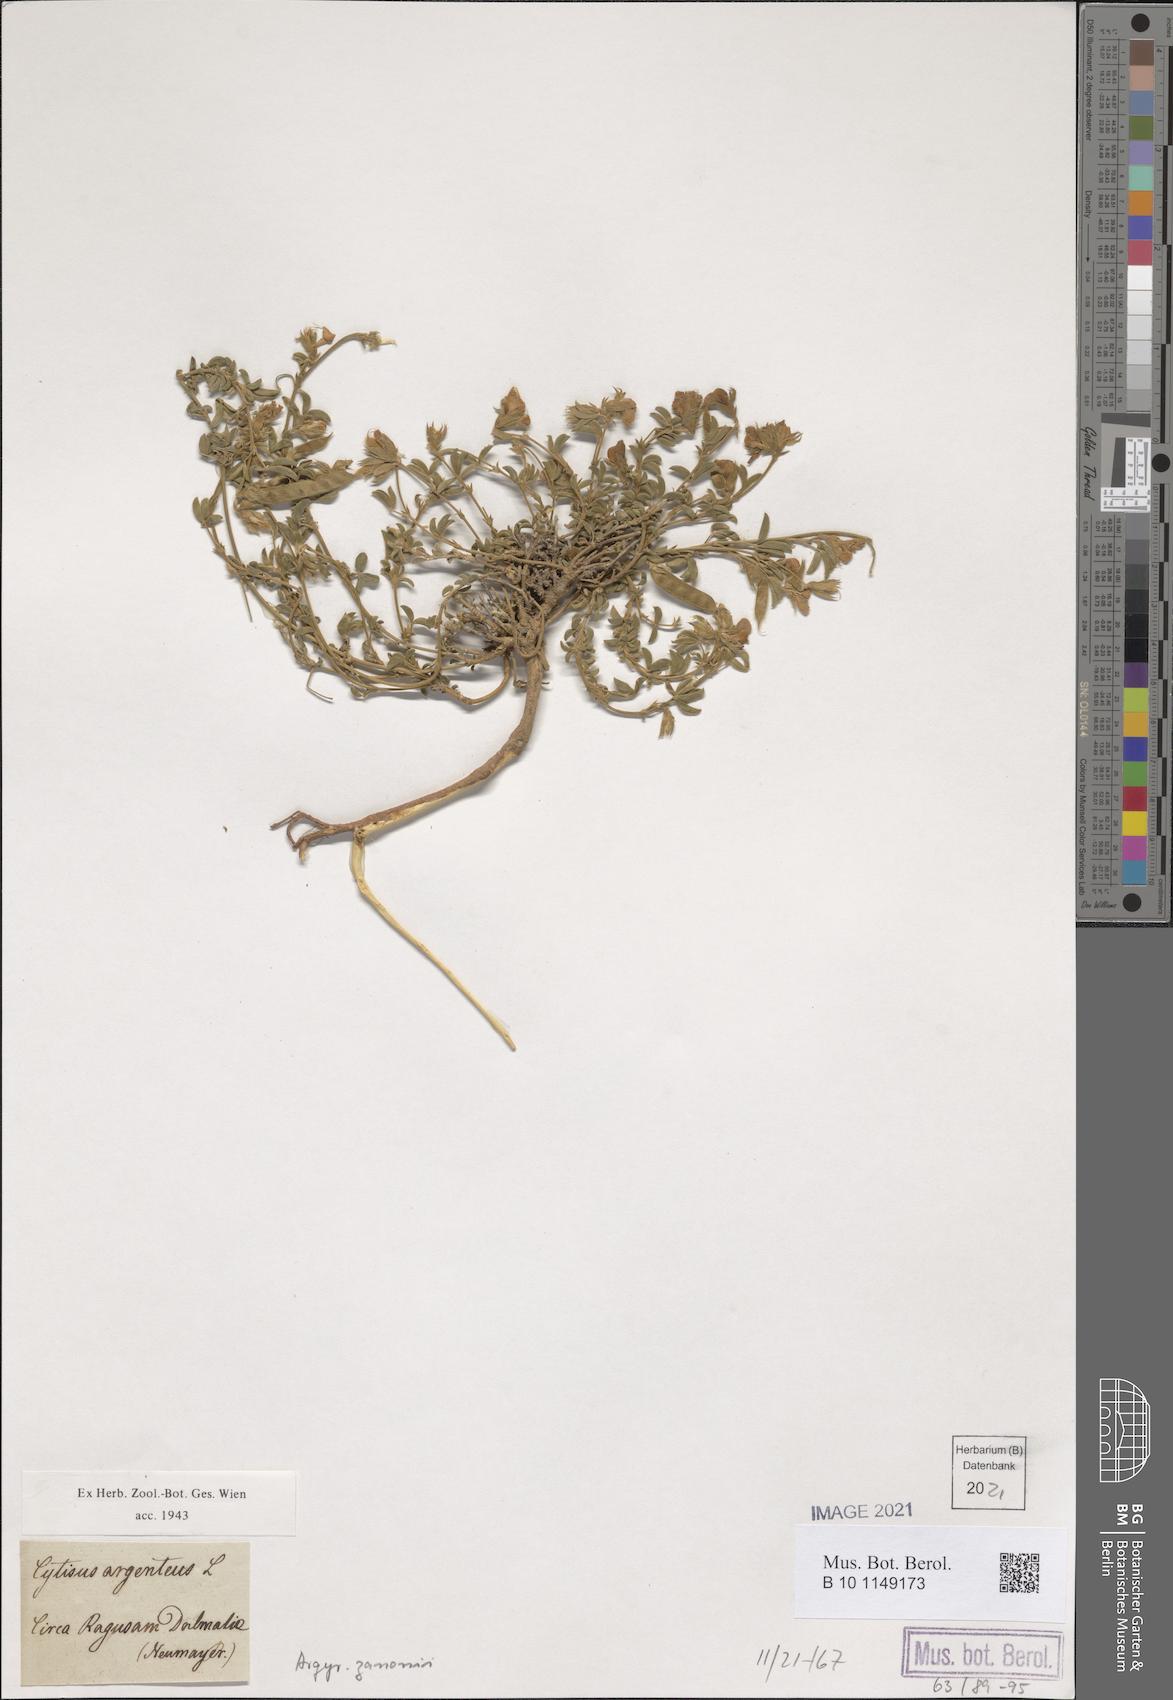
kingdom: Plantae
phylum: Tracheophyta
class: Magnoliopsida
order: Fabales
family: Fabaceae
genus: Argyrolobium
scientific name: Argyrolobium zanonii
